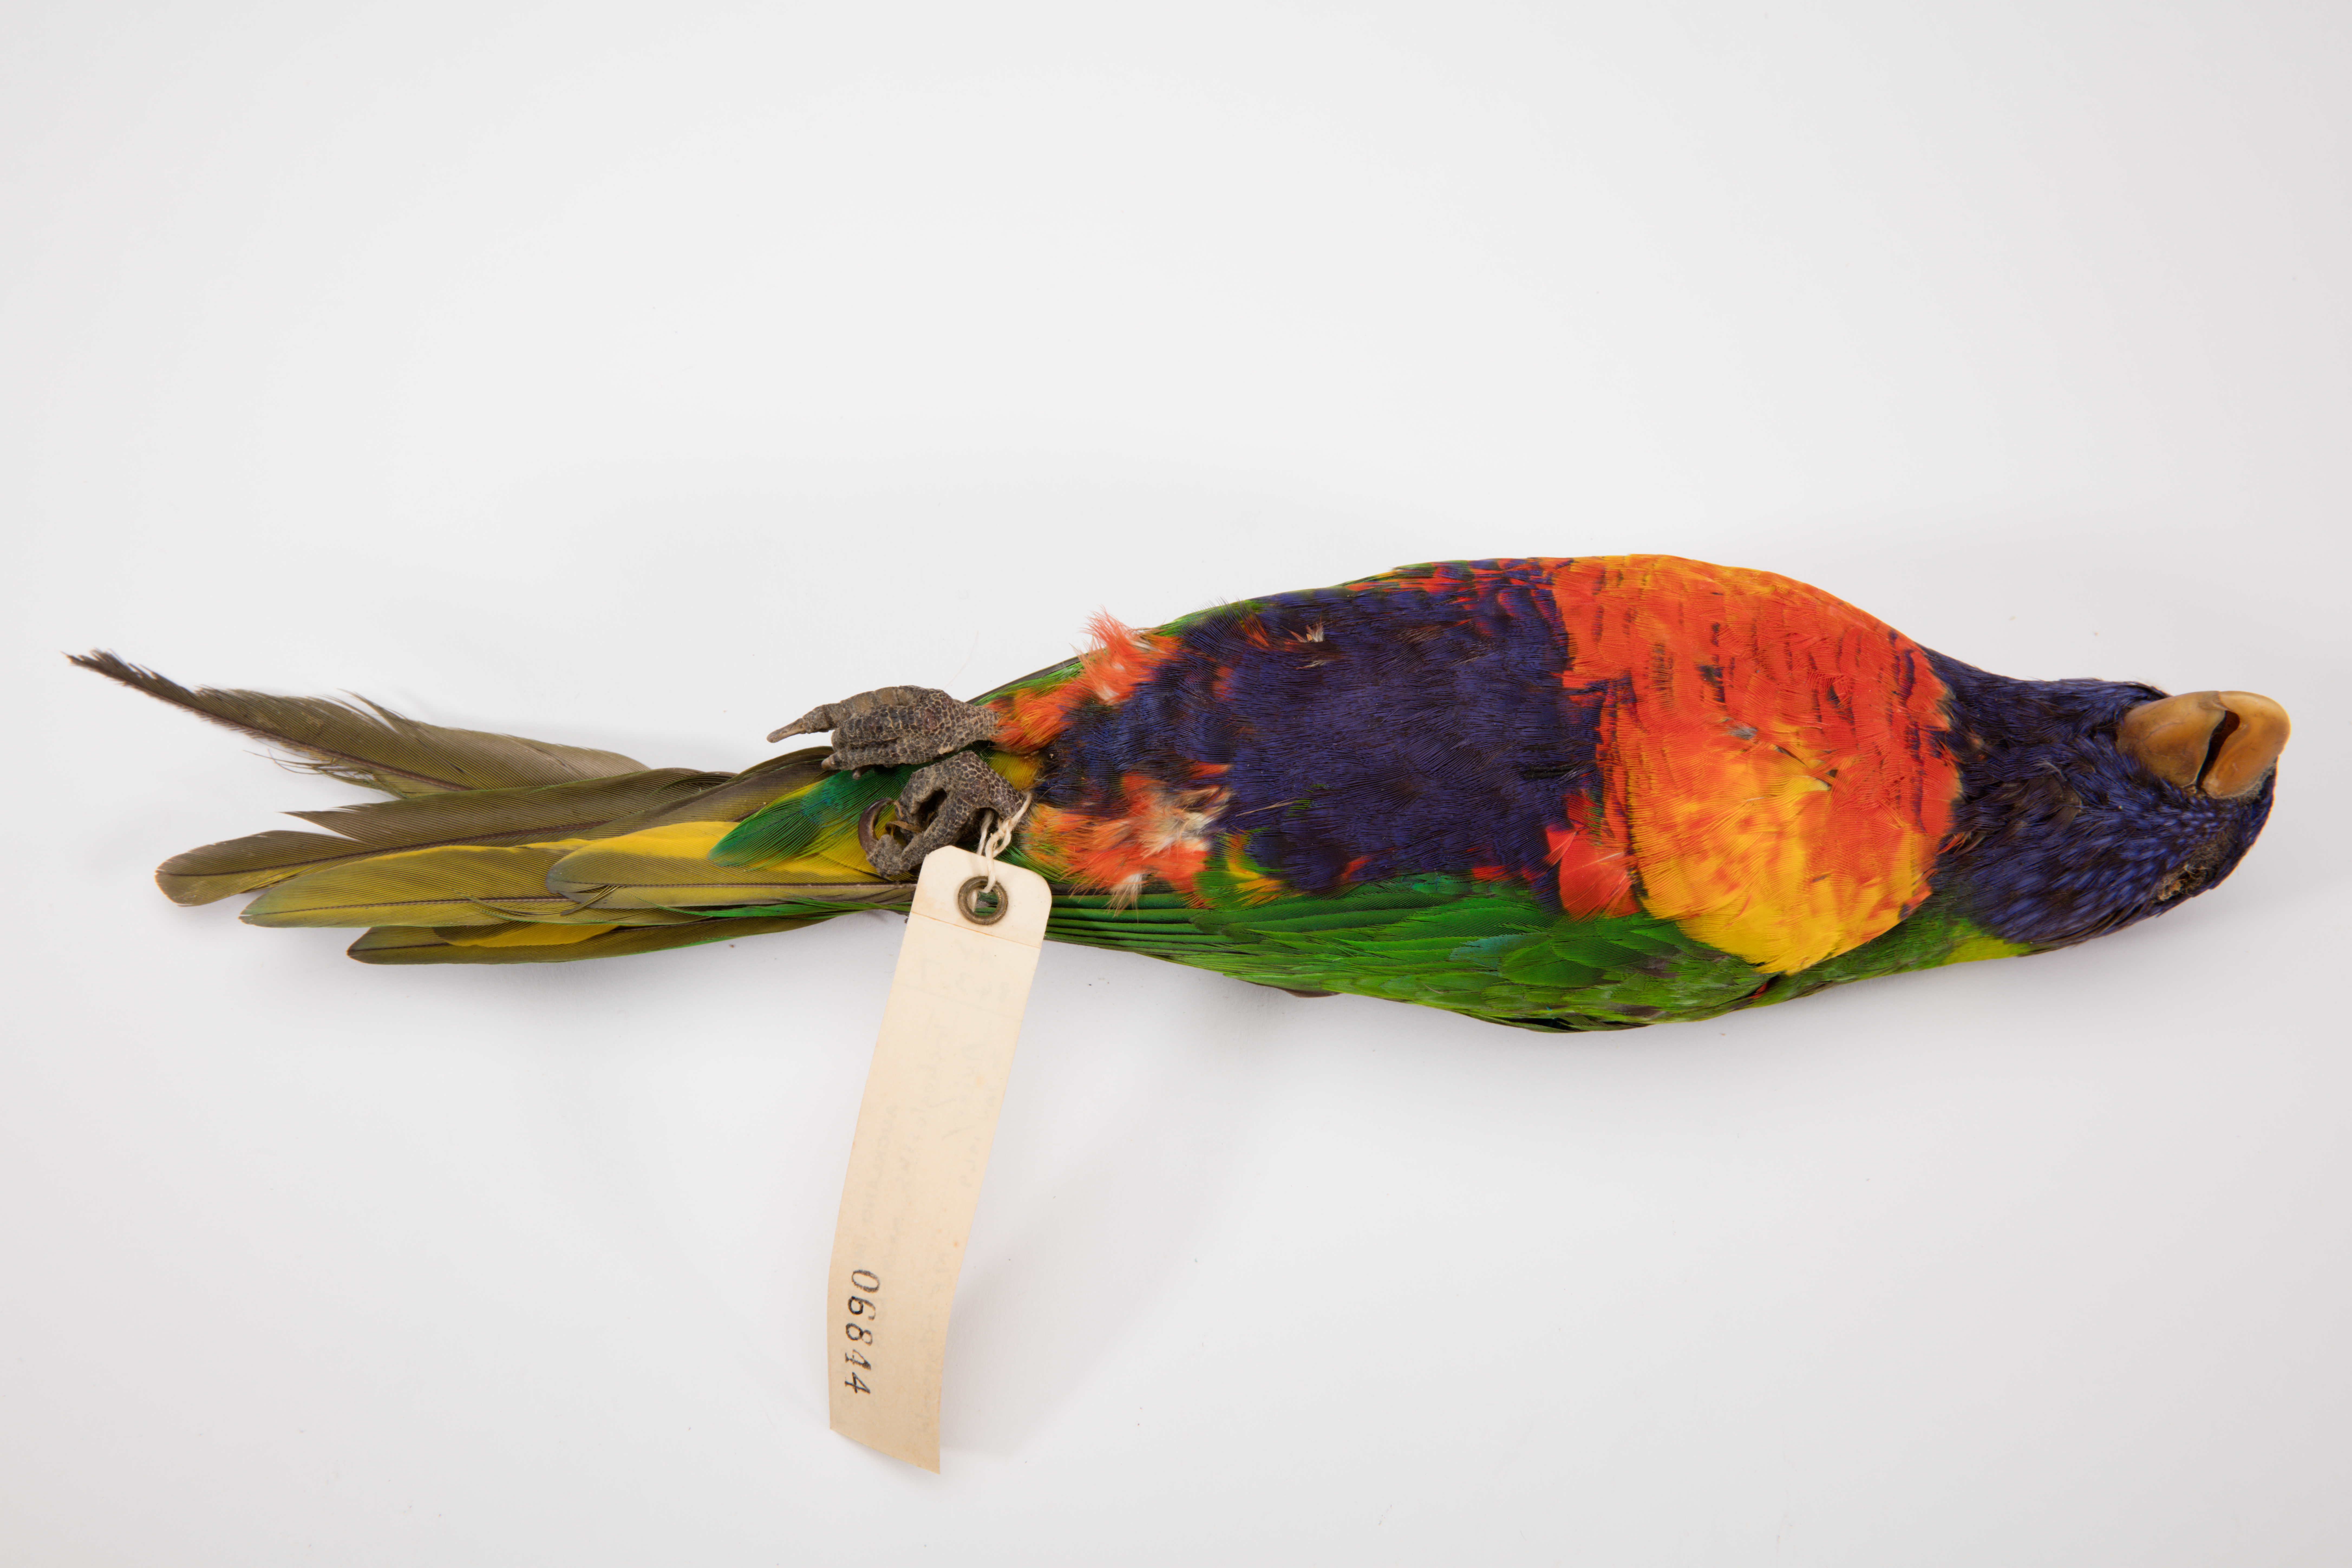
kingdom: Animalia
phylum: Chordata
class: Aves
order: Psittaciformes
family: Psittacidae
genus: Trichoglossus
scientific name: Trichoglossus haematodus
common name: Coconut lorikeet
